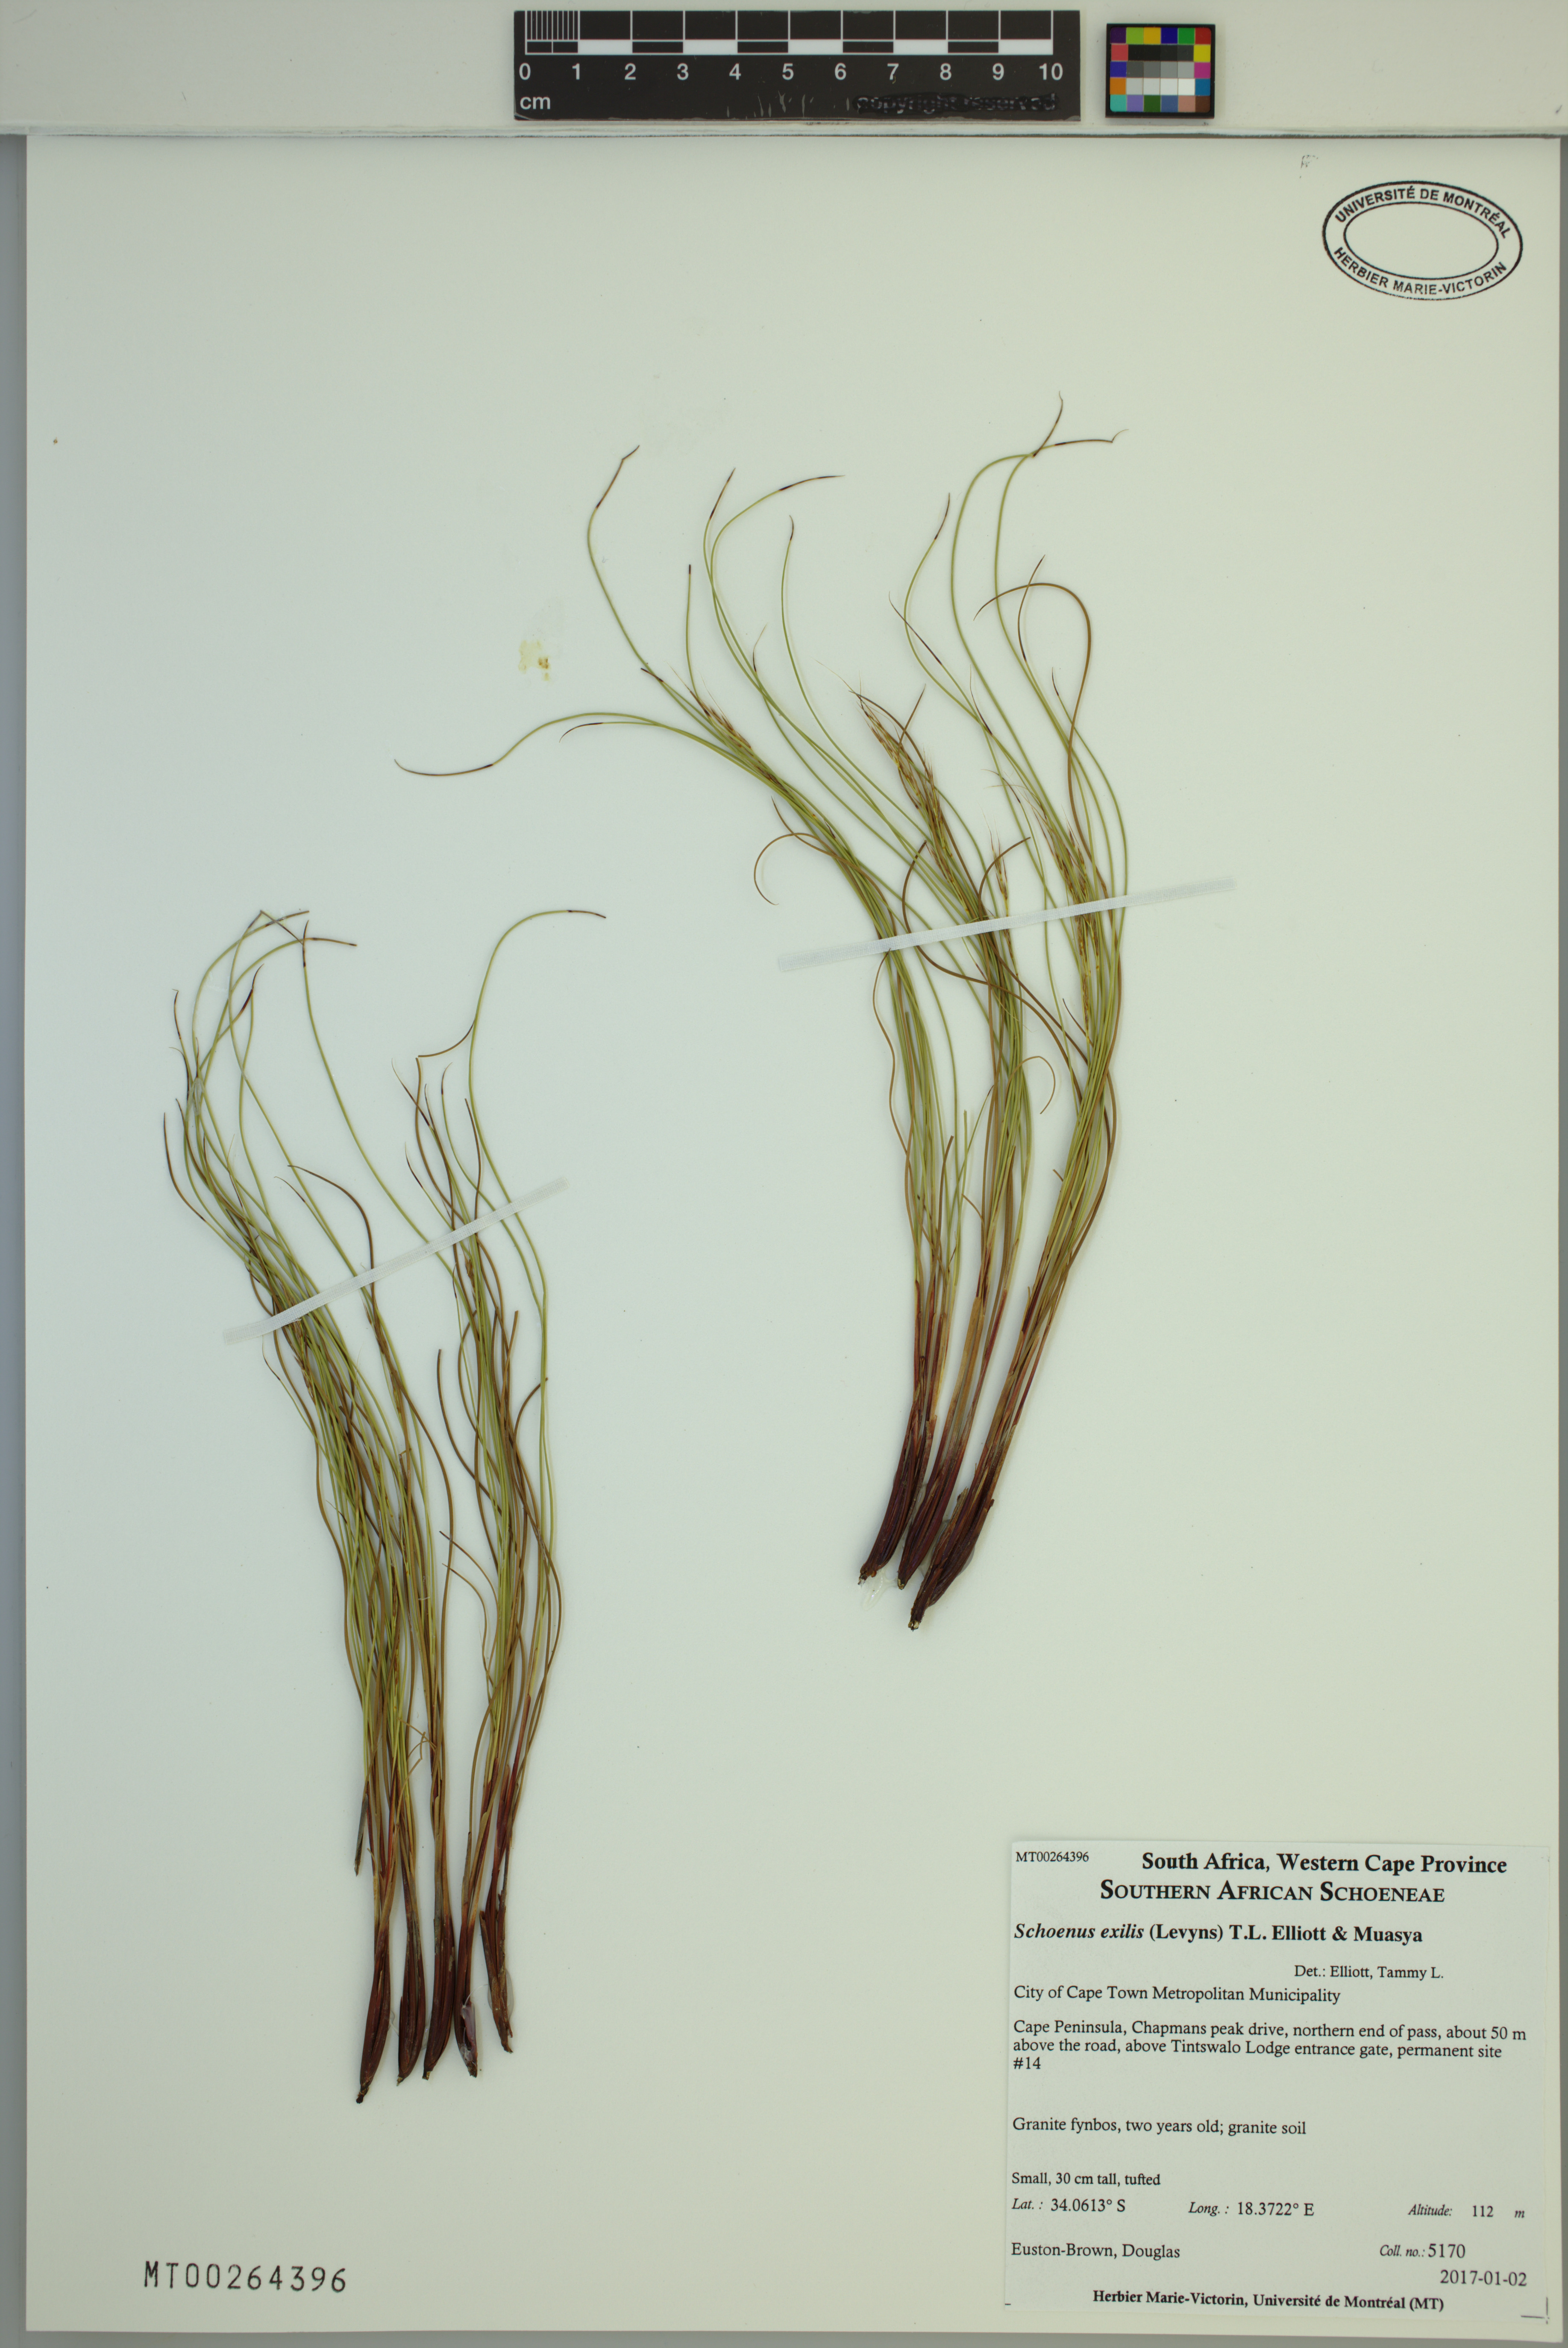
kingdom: Plantae
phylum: Tracheophyta
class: Liliopsida
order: Poales
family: Cyperaceae
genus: Schoenus
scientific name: Schoenus exilis
